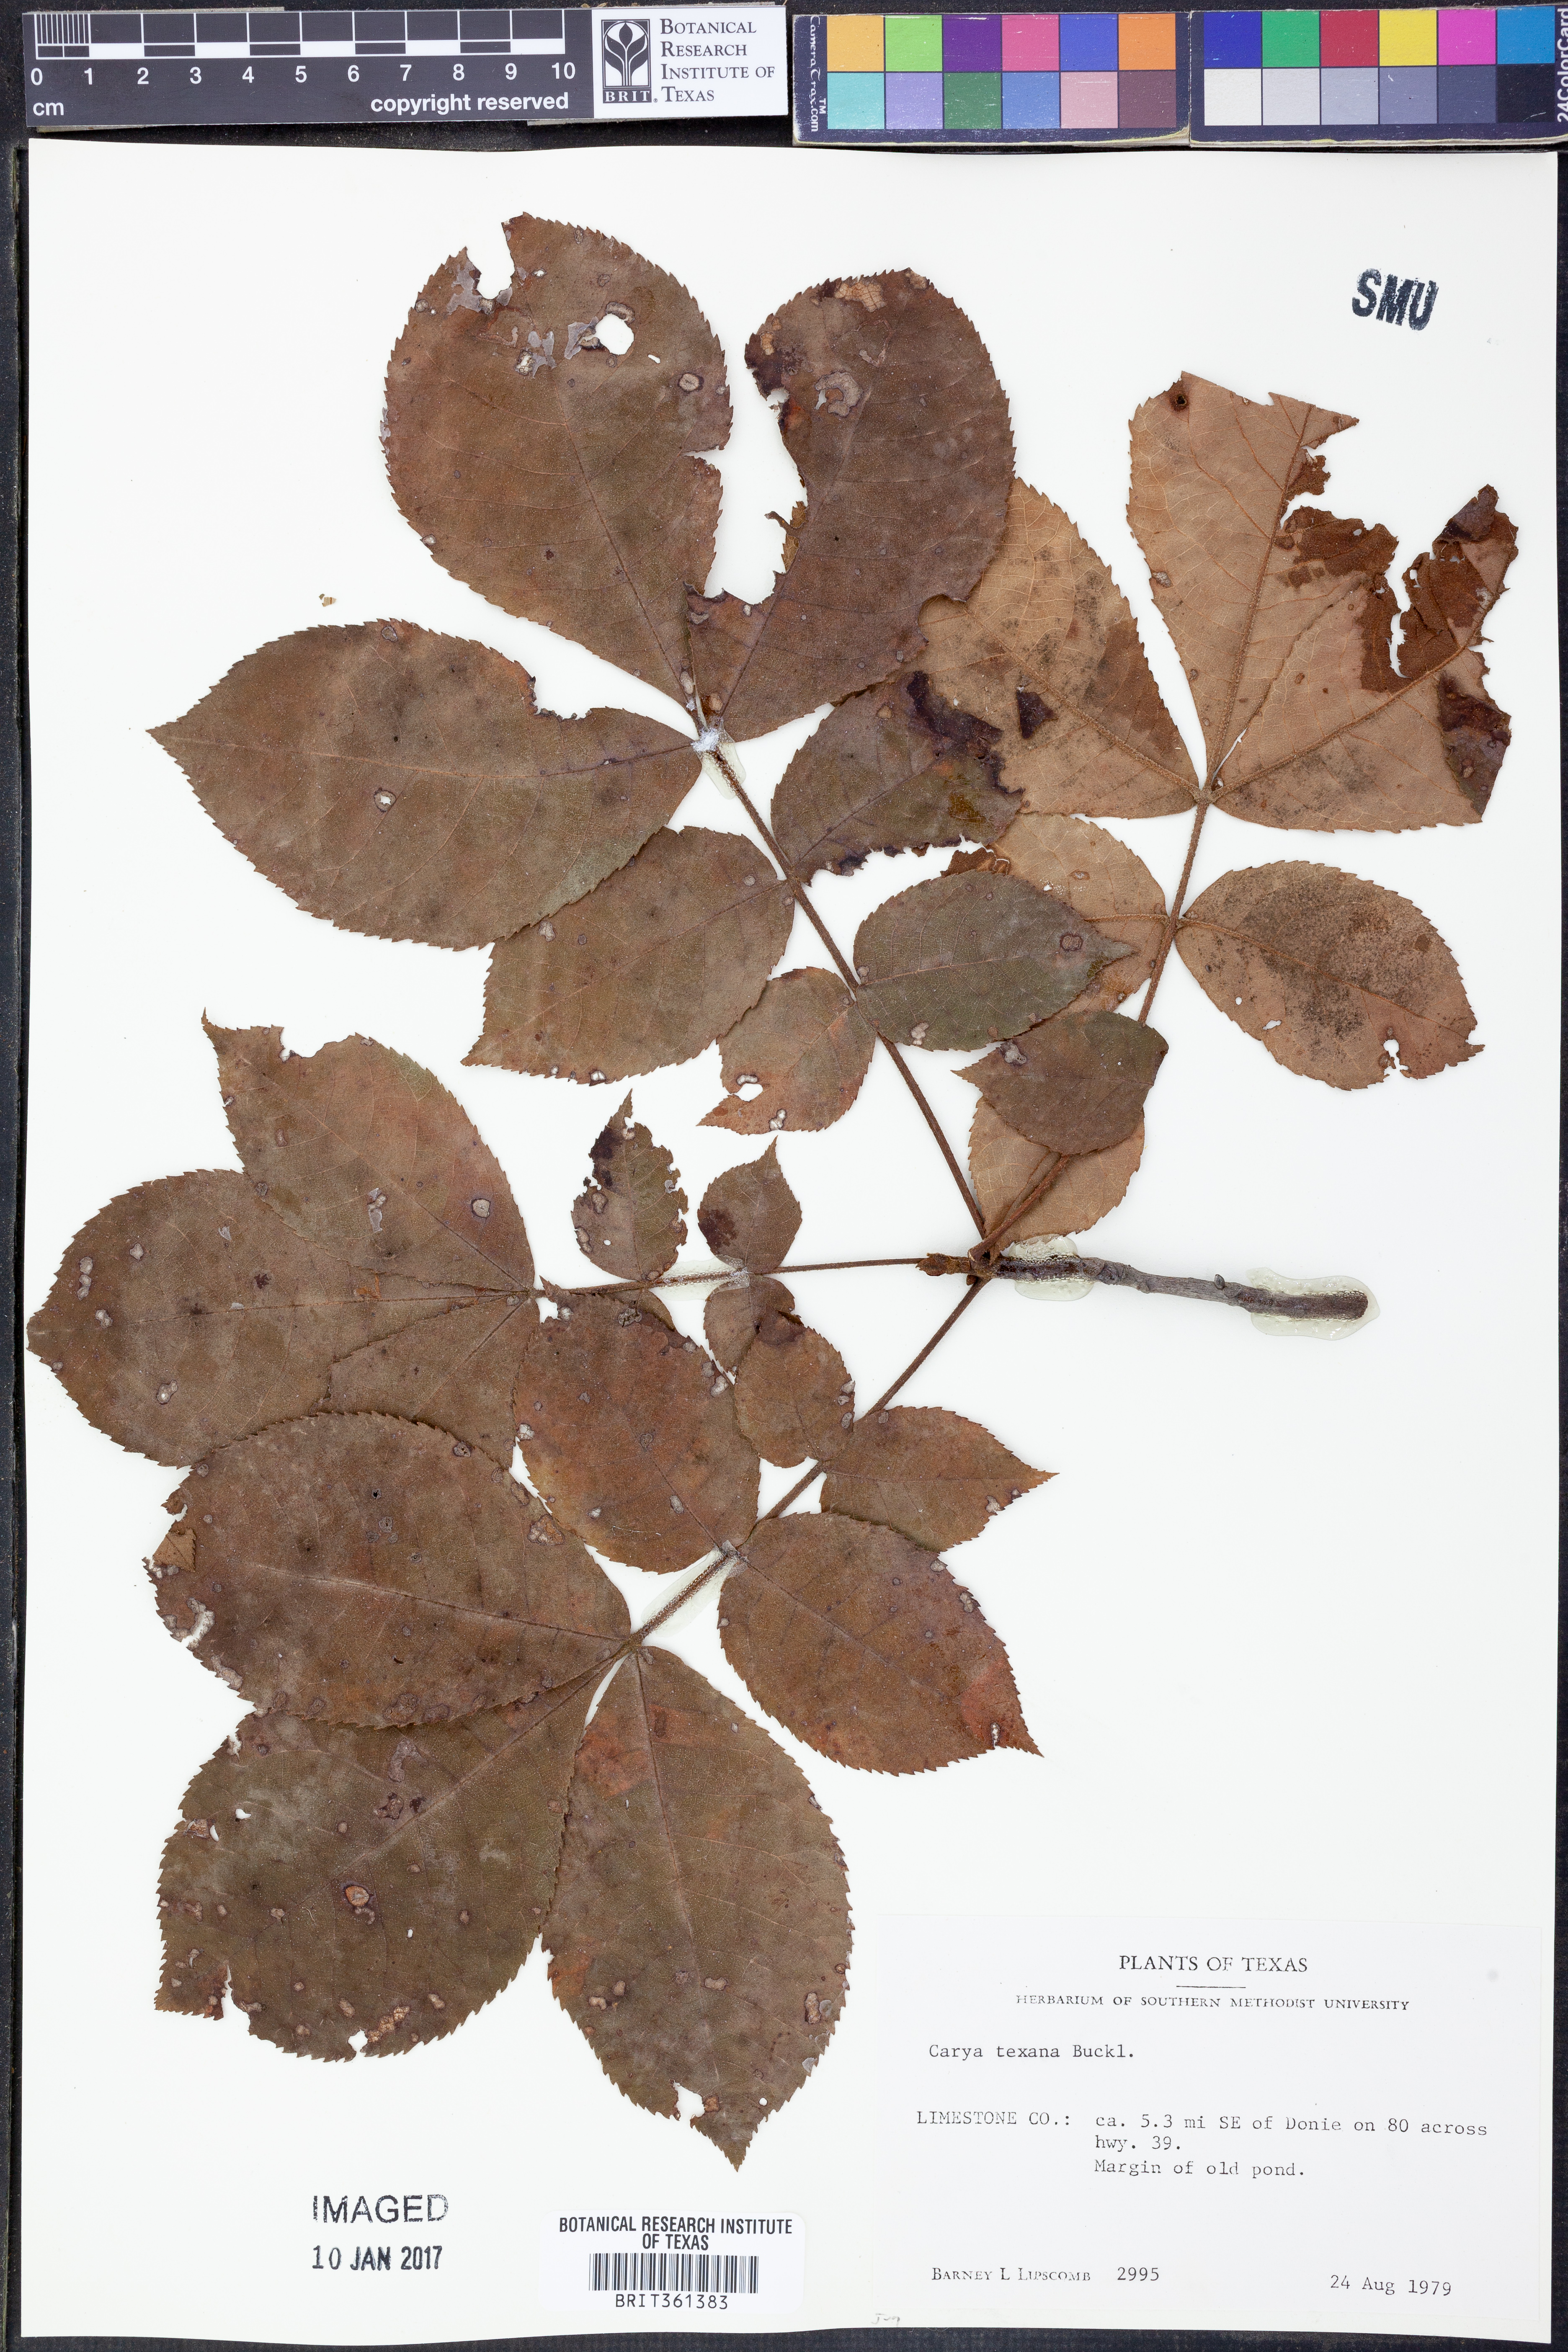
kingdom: Plantae
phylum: Tracheophyta
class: Magnoliopsida
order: Fagales
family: Juglandaceae
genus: Carya
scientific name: Carya texana
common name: Black hickory
